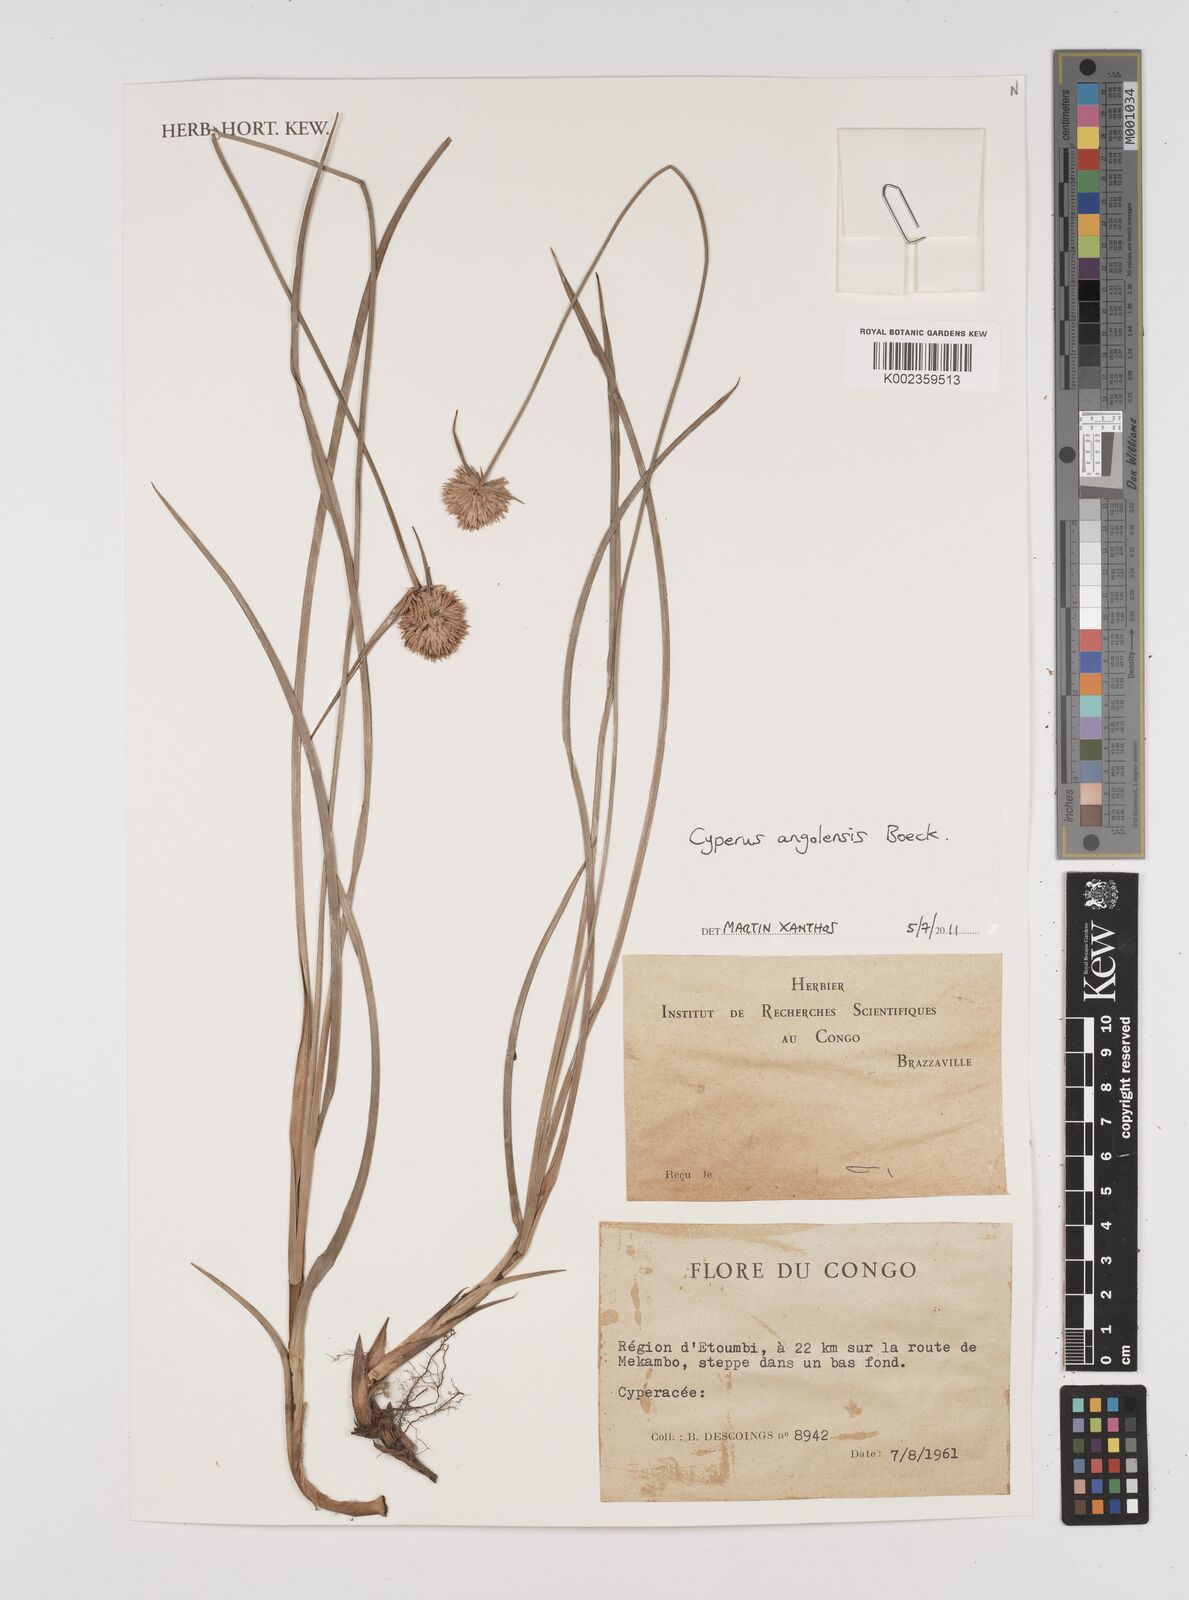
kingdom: Plantae
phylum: Tracheophyta
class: Liliopsida
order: Poales
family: Cyperaceae
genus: Cyperus
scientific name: Cyperus angolensis
